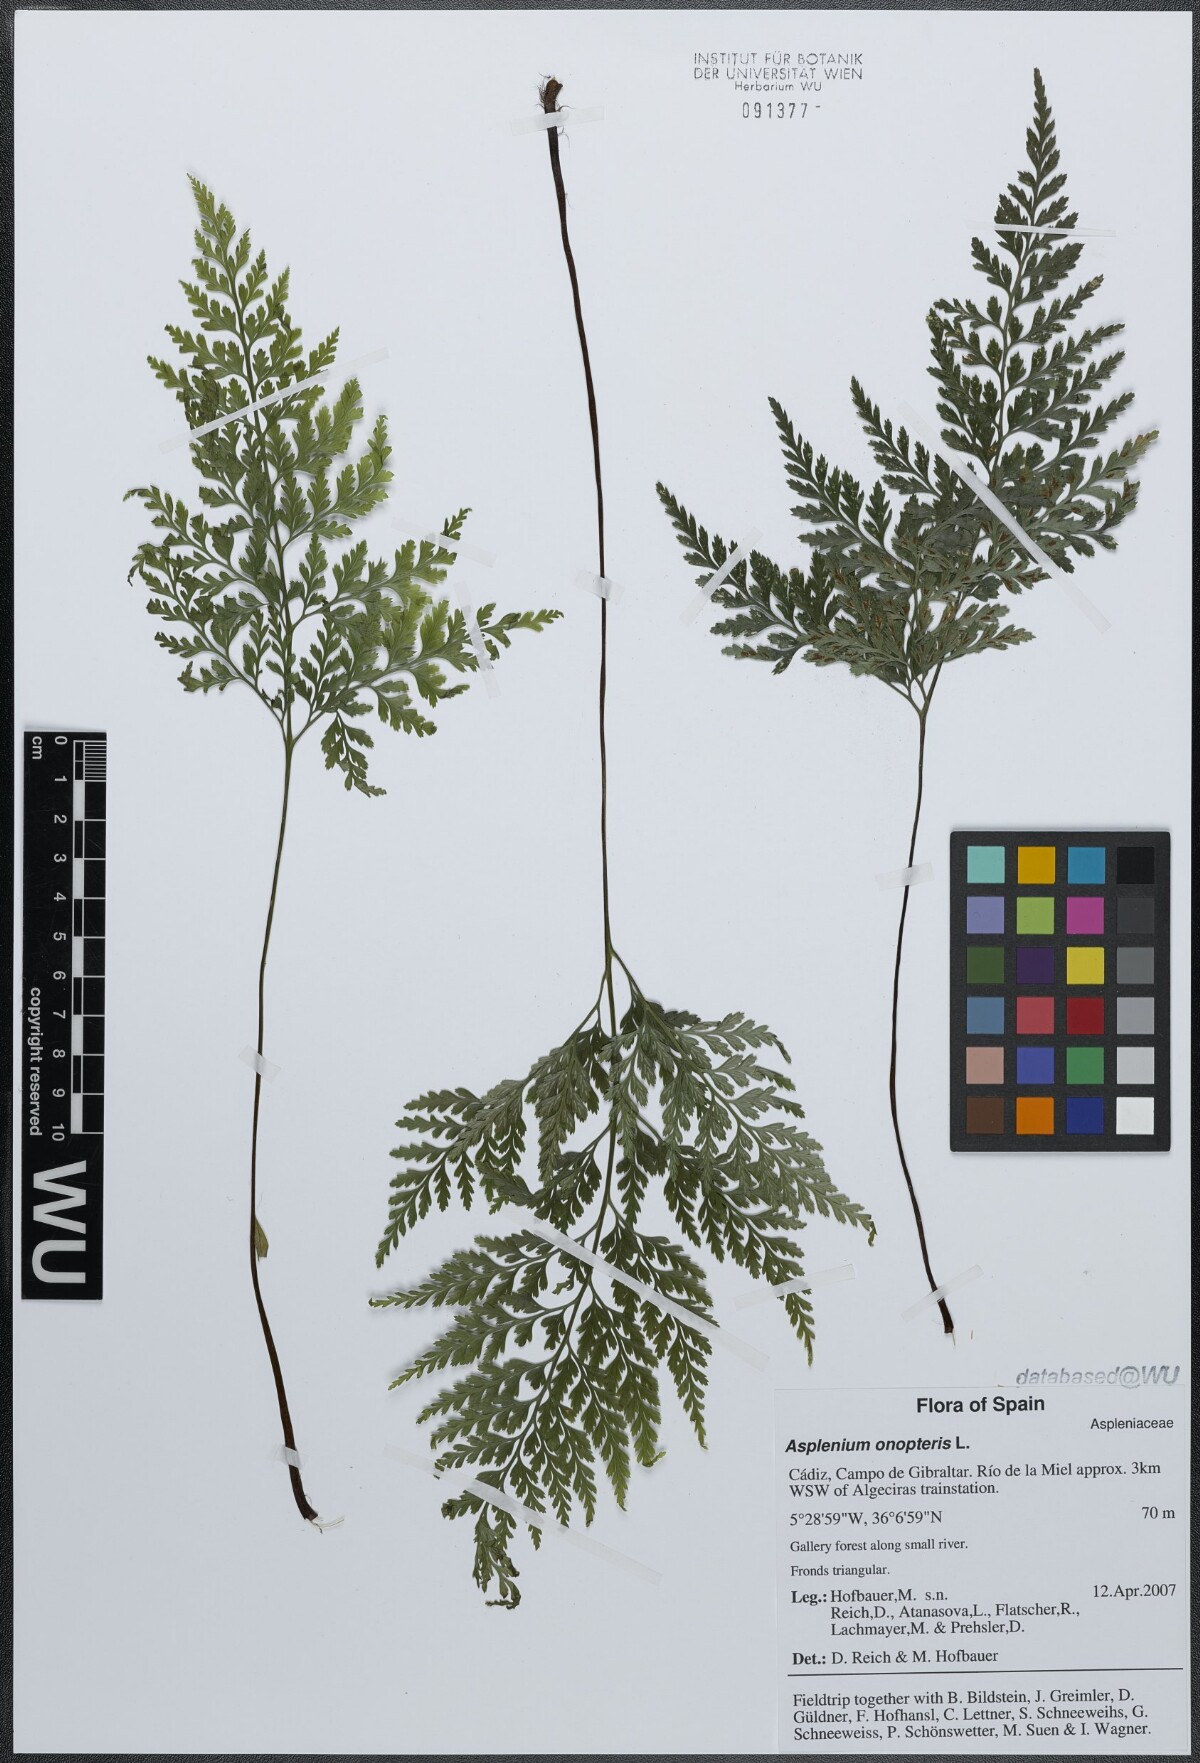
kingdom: Plantae
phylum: Tracheophyta
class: Polypodiopsida
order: Polypodiales
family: Aspleniaceae
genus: Asplenium
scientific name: Asplenium onopteris
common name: Irish spleenwort
